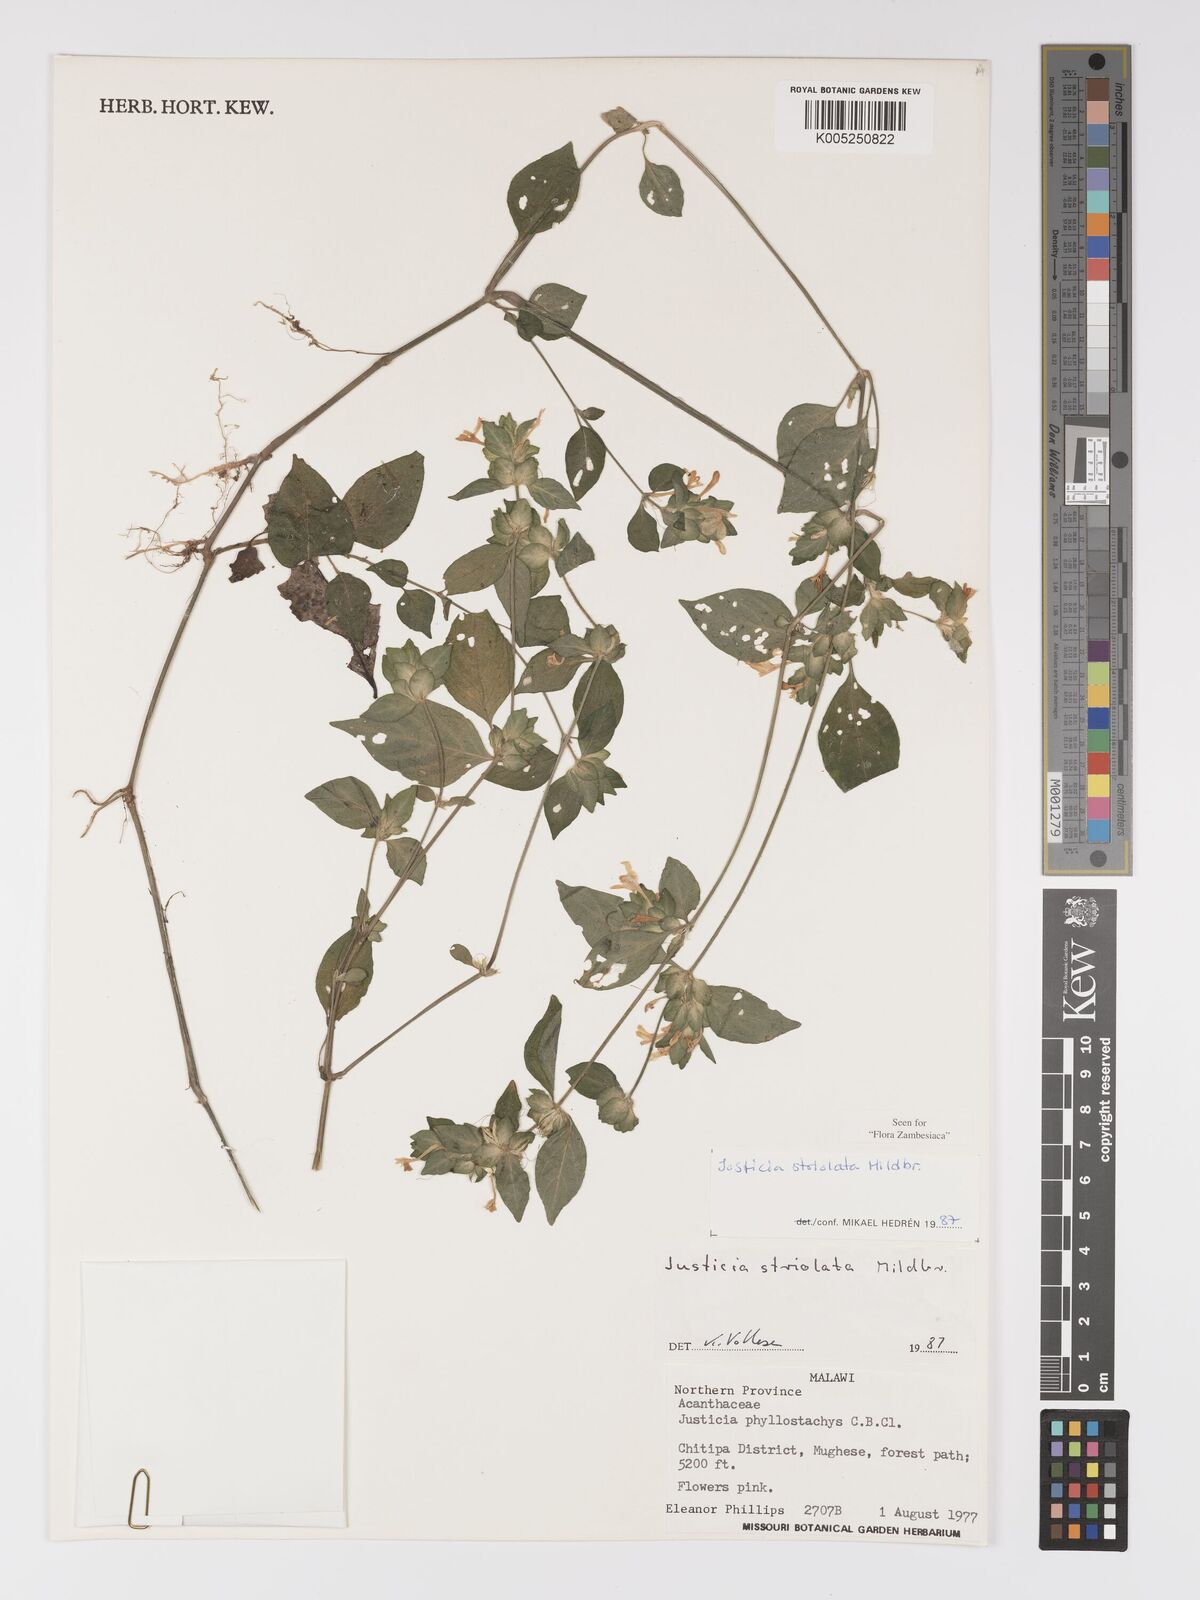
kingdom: Plantae
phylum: Tracheophyta
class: Magnoliopsida
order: Lamiales
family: Acanthaceae
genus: Justicia
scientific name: Justicia striolata
